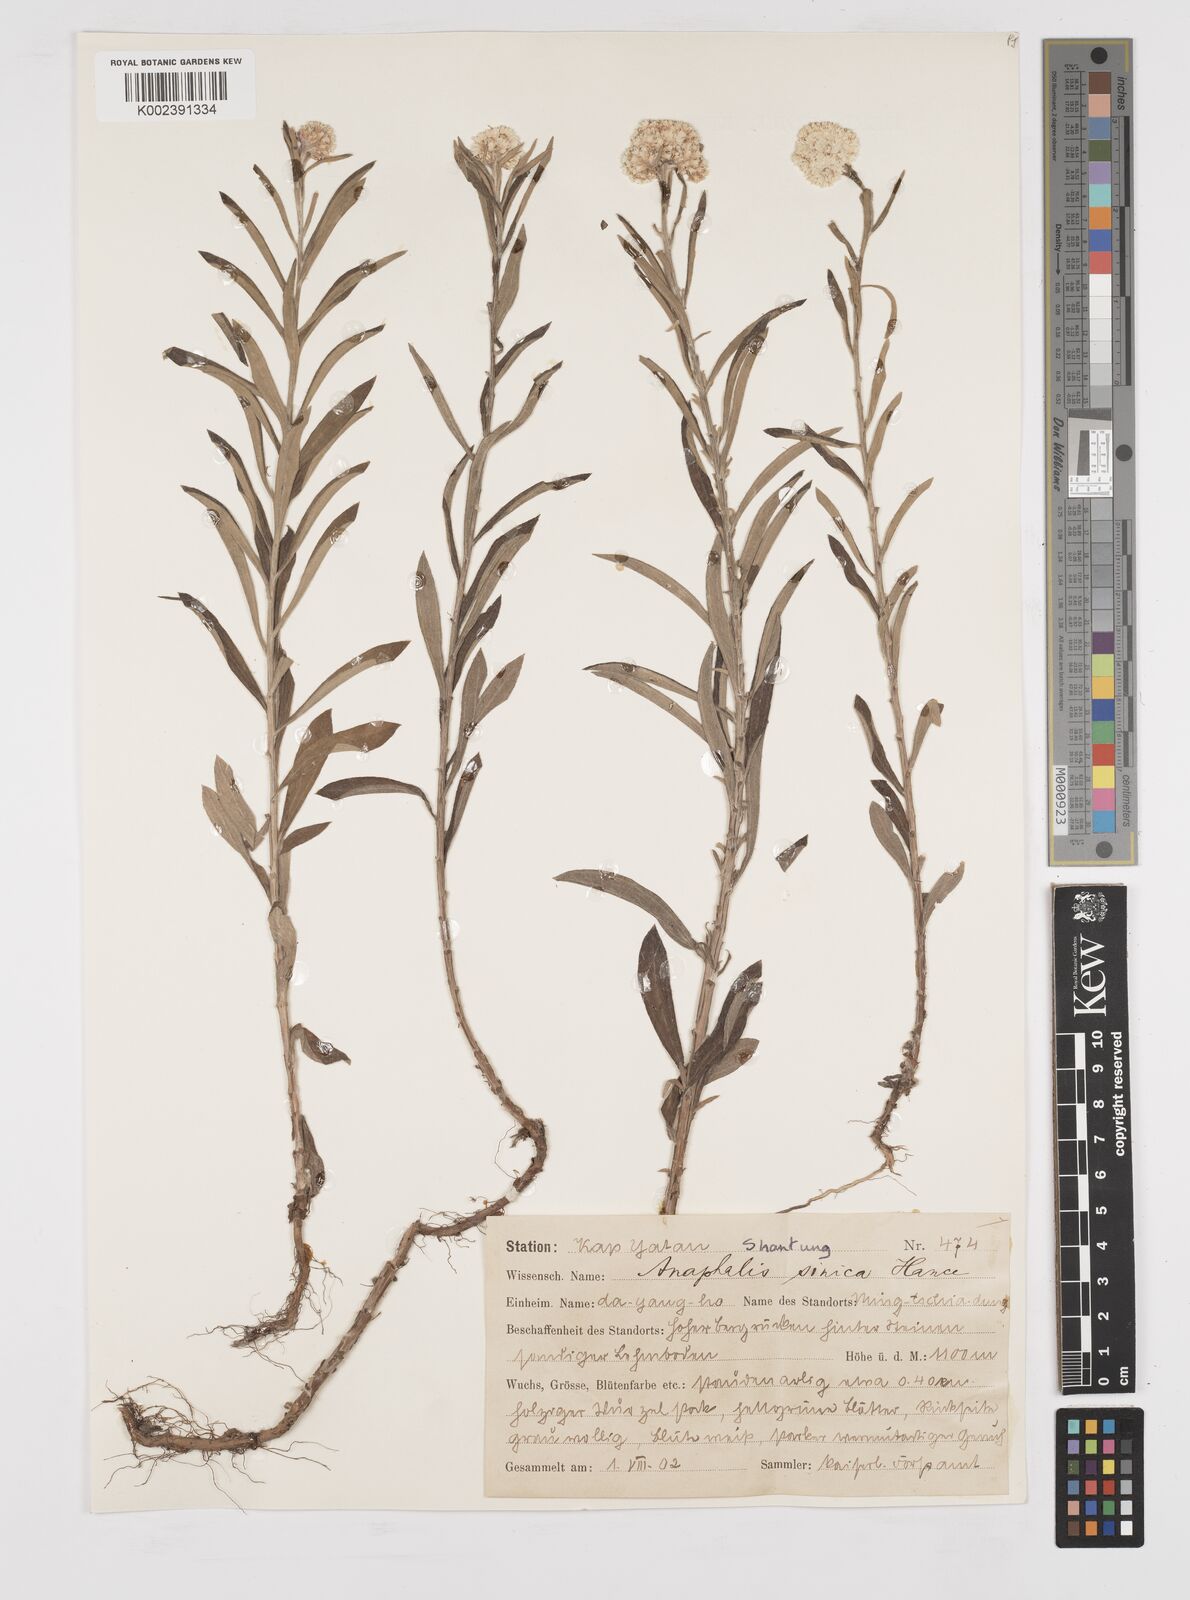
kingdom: Plantae
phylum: Tracheophyta
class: Magnoliopsida
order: Asterales
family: Asteraceae
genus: Anaphalis
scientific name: Anaphalis sinica
